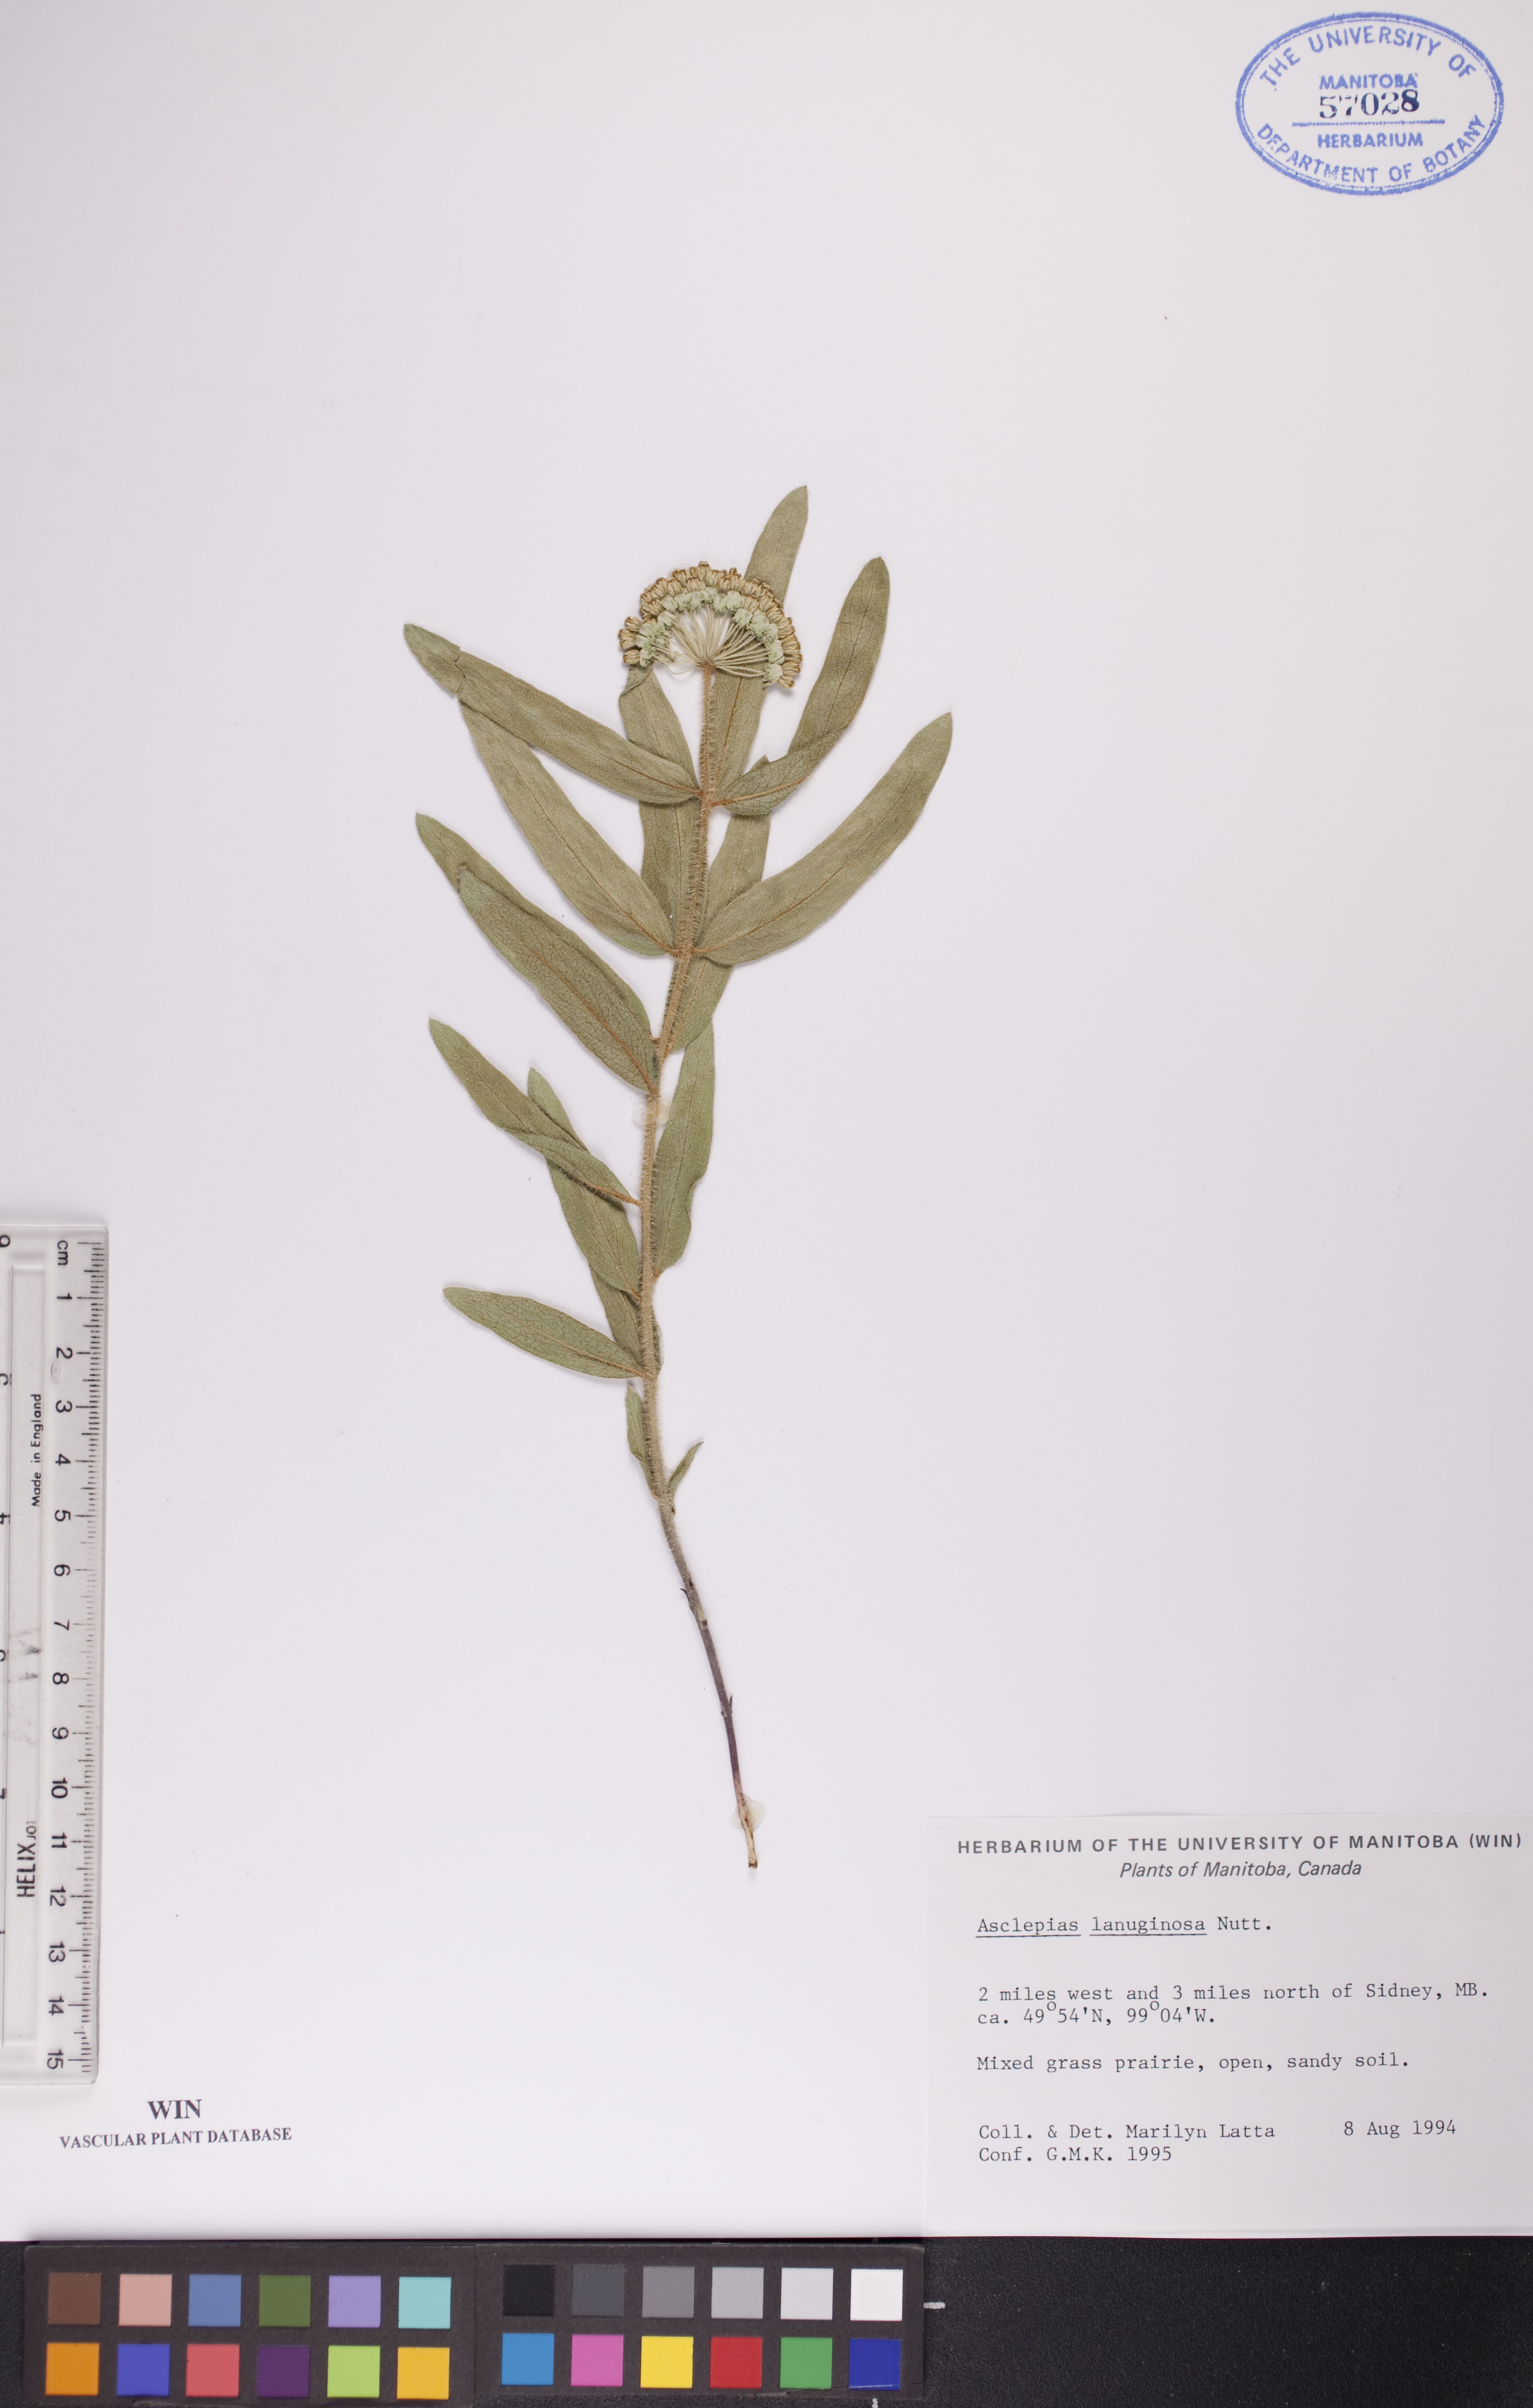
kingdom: Plantae
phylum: Tracheophyta
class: Magnoliopsida
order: Gentianales
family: Apocynaceae
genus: Asclepias
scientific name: Asclepias lanuginosa
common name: Side-cluster milkweed
